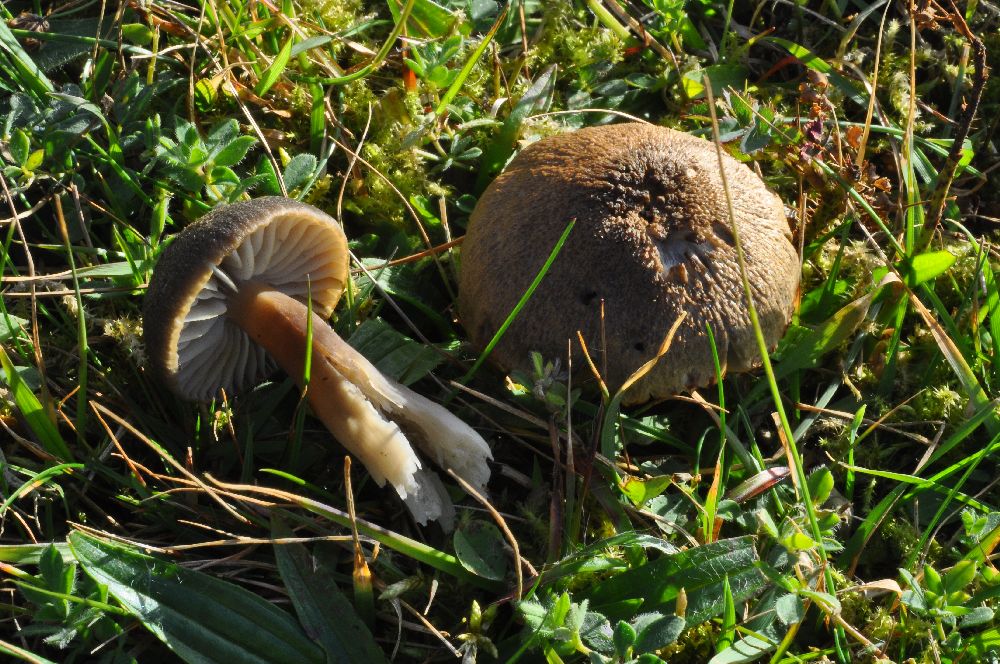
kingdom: Fungi
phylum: Basidiomycota
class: Agaricomycetes
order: Agaricales
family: Hygrophoraceae
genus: Neohygrocybe
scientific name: Neohygrocybe nitrata
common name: stinkende vokshat
